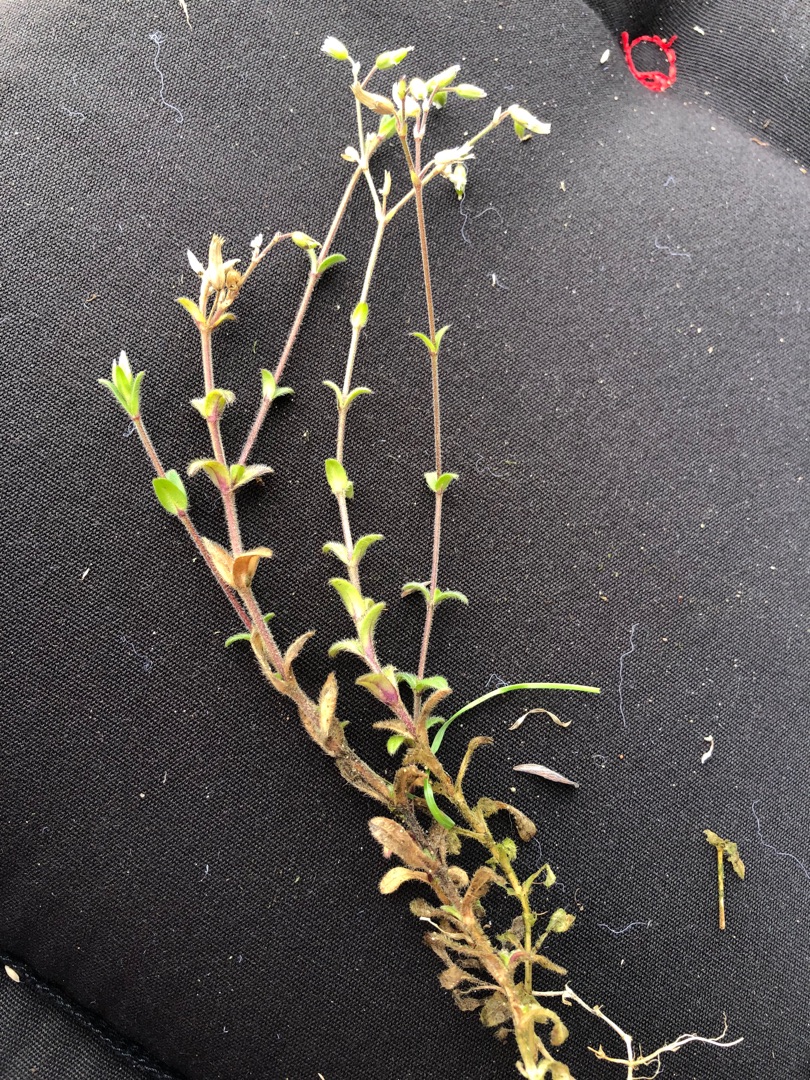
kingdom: Plantae
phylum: Tracheophyta
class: Magnoliopsida
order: Caryophyllales
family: Caryophyllaceae
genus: Cerastium
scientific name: Cerastium holosteoides
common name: Almindelig hønsetarm (varietet)
